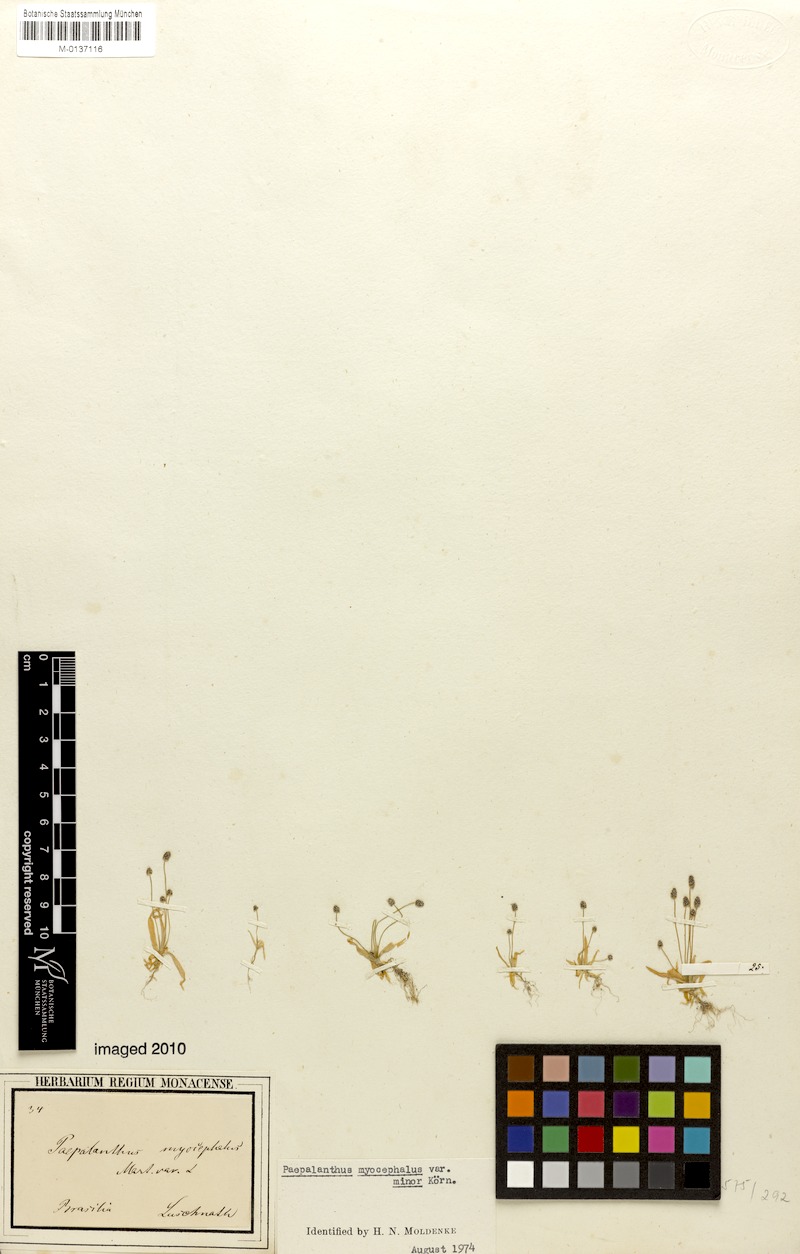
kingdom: Plantae
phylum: Tracheophyta
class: Liliopsida
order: Poales
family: Eriocaulaceae
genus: Paepalanthus
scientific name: Paepalanthus myocephalon
